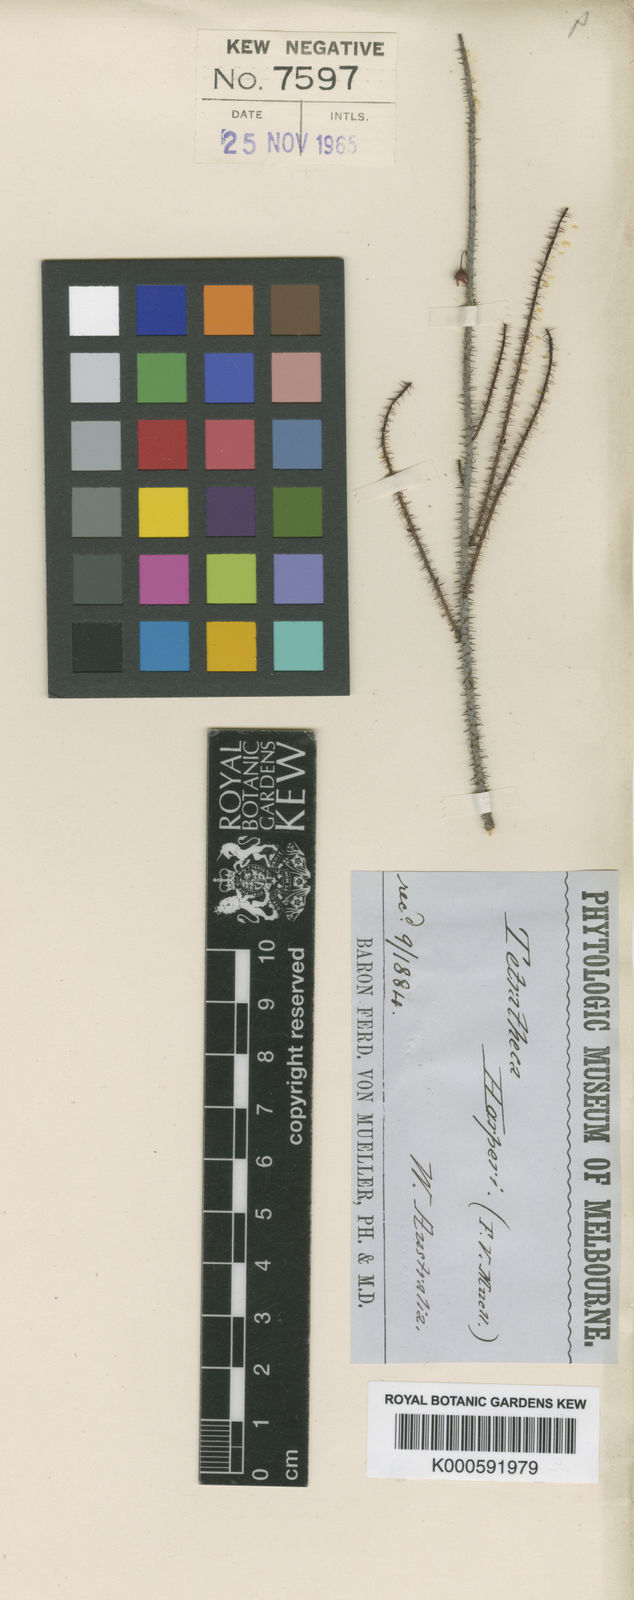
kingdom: Plantae
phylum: Tracheophyta
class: Magnoliopsida
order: Oxalidales
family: Elaeocarpaceae
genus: Tetratheca
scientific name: Tetratheca harperi
